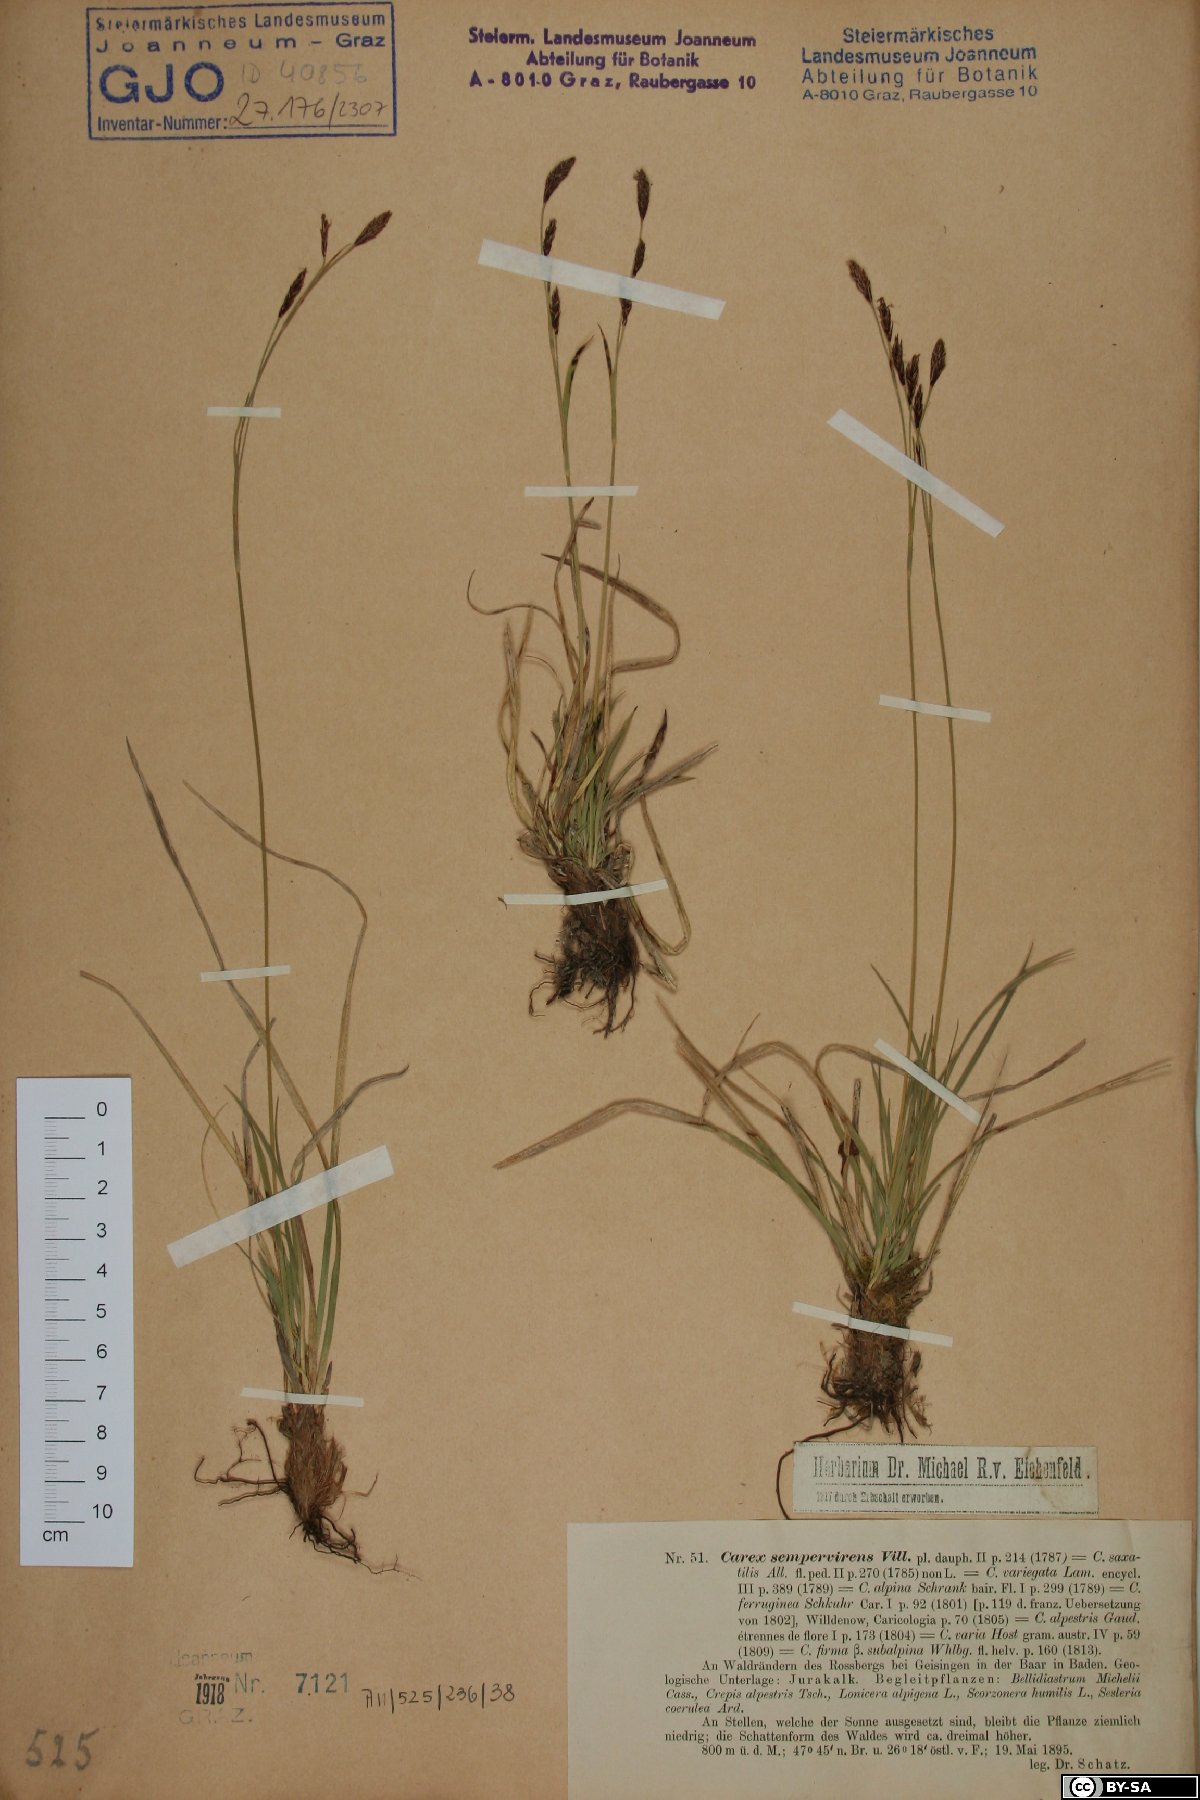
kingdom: Plantae
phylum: Tracheophyta
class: Liliopsida
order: Poales
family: Cyperaceae
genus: Carex
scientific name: Carex sempervirens
